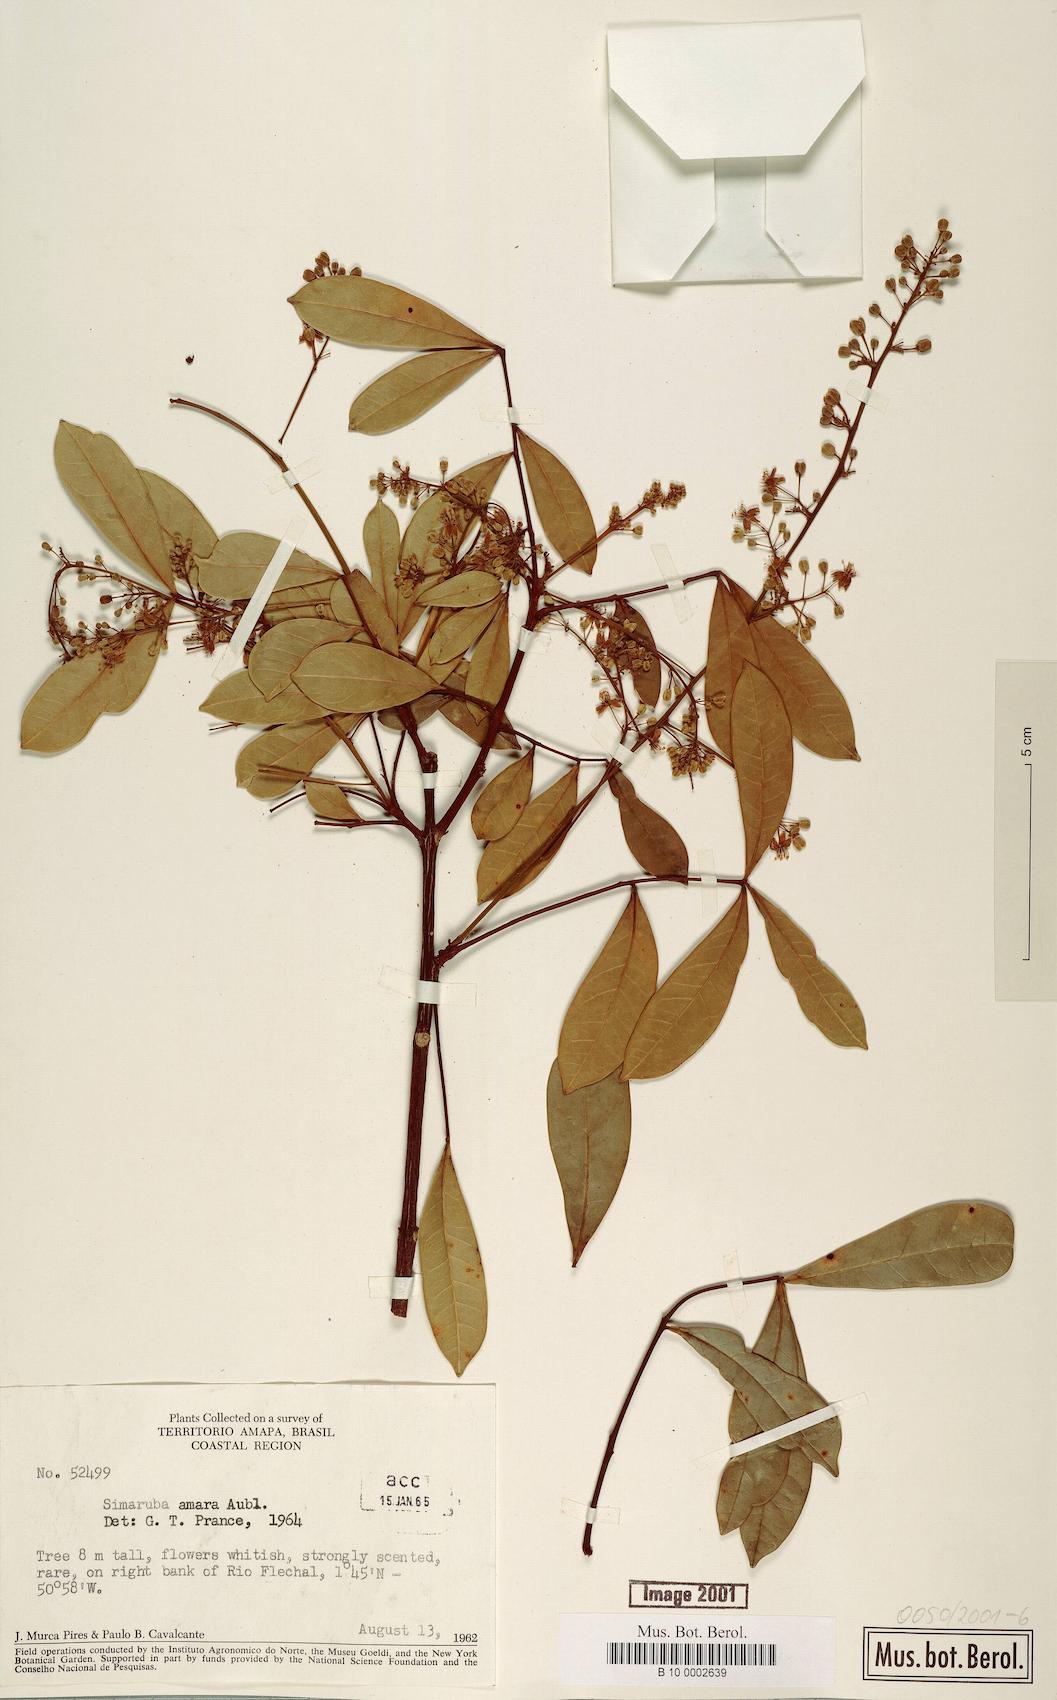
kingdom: Plantae
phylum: Tracheophyta
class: Magnoliopsida
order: Sapindales
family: Simaroubaceae
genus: Simarouba
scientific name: Simarouba amara
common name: Bitterwood
